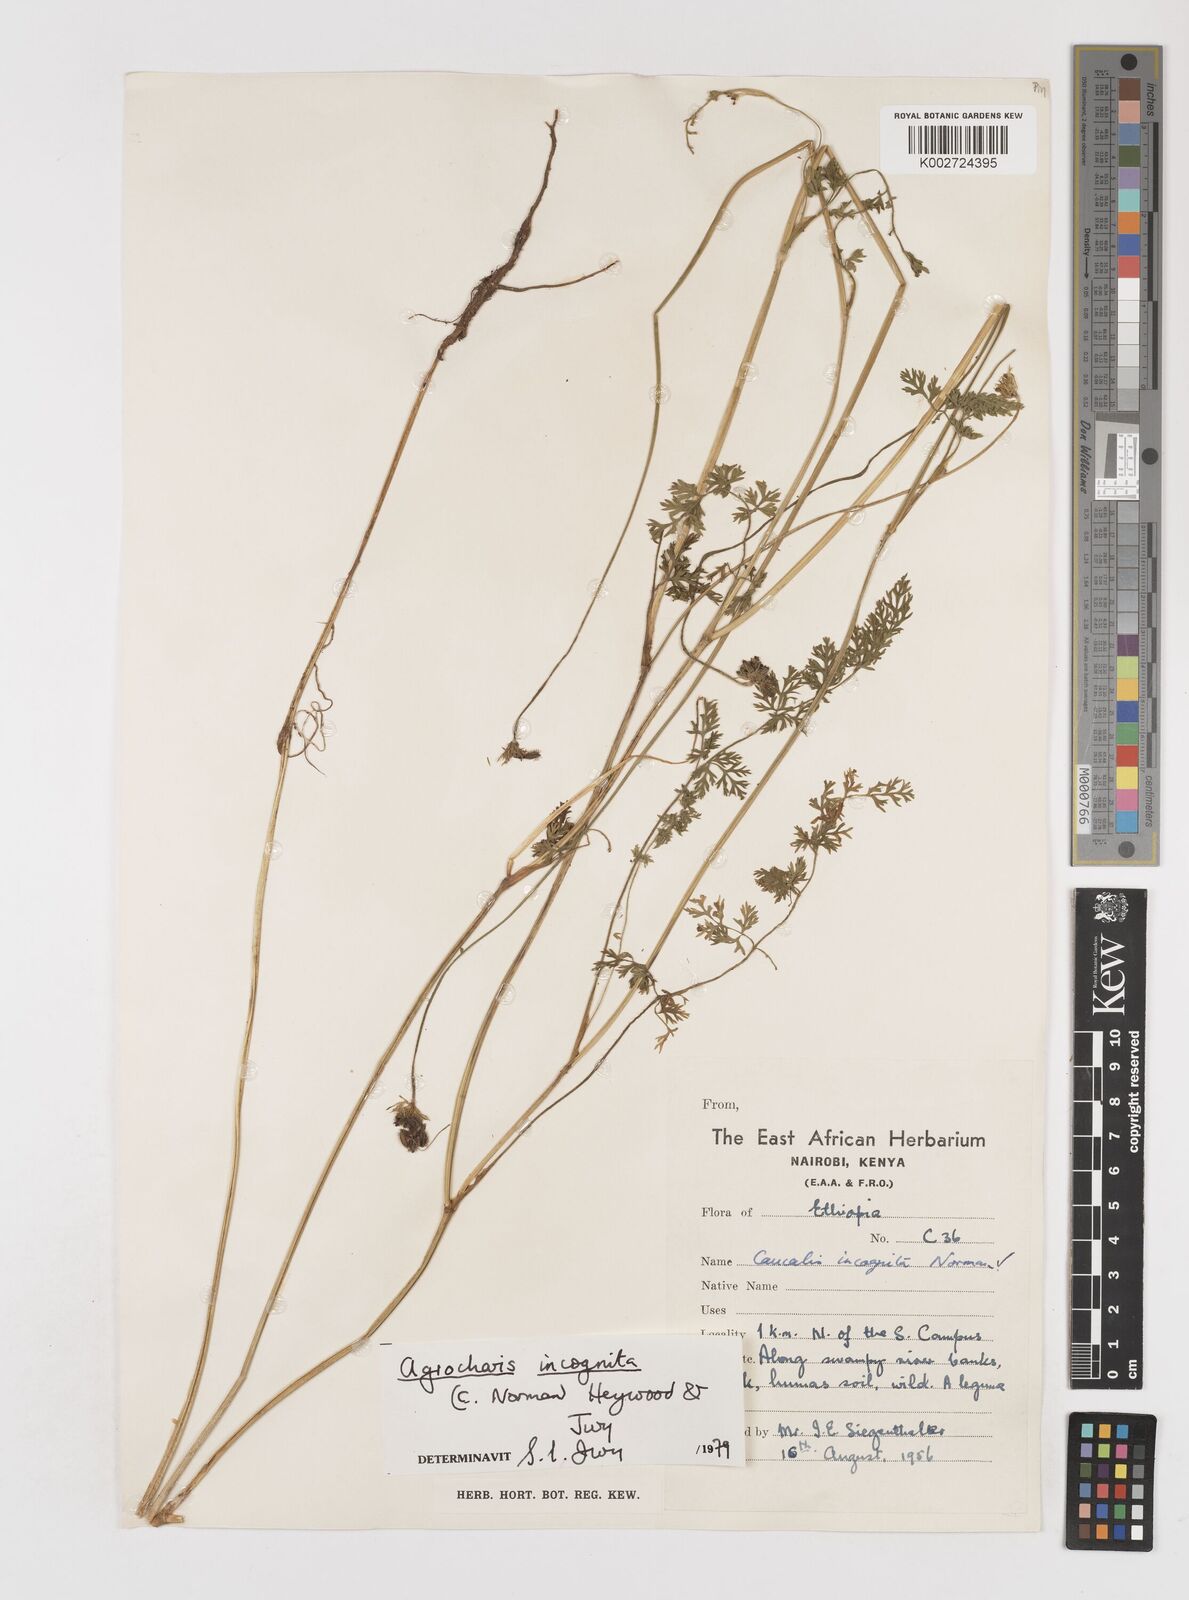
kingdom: Plantae
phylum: Tracheophyta
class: Magnoliopsida
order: Apiales
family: Apiaceae
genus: Daucus
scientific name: Daucus incognitus
